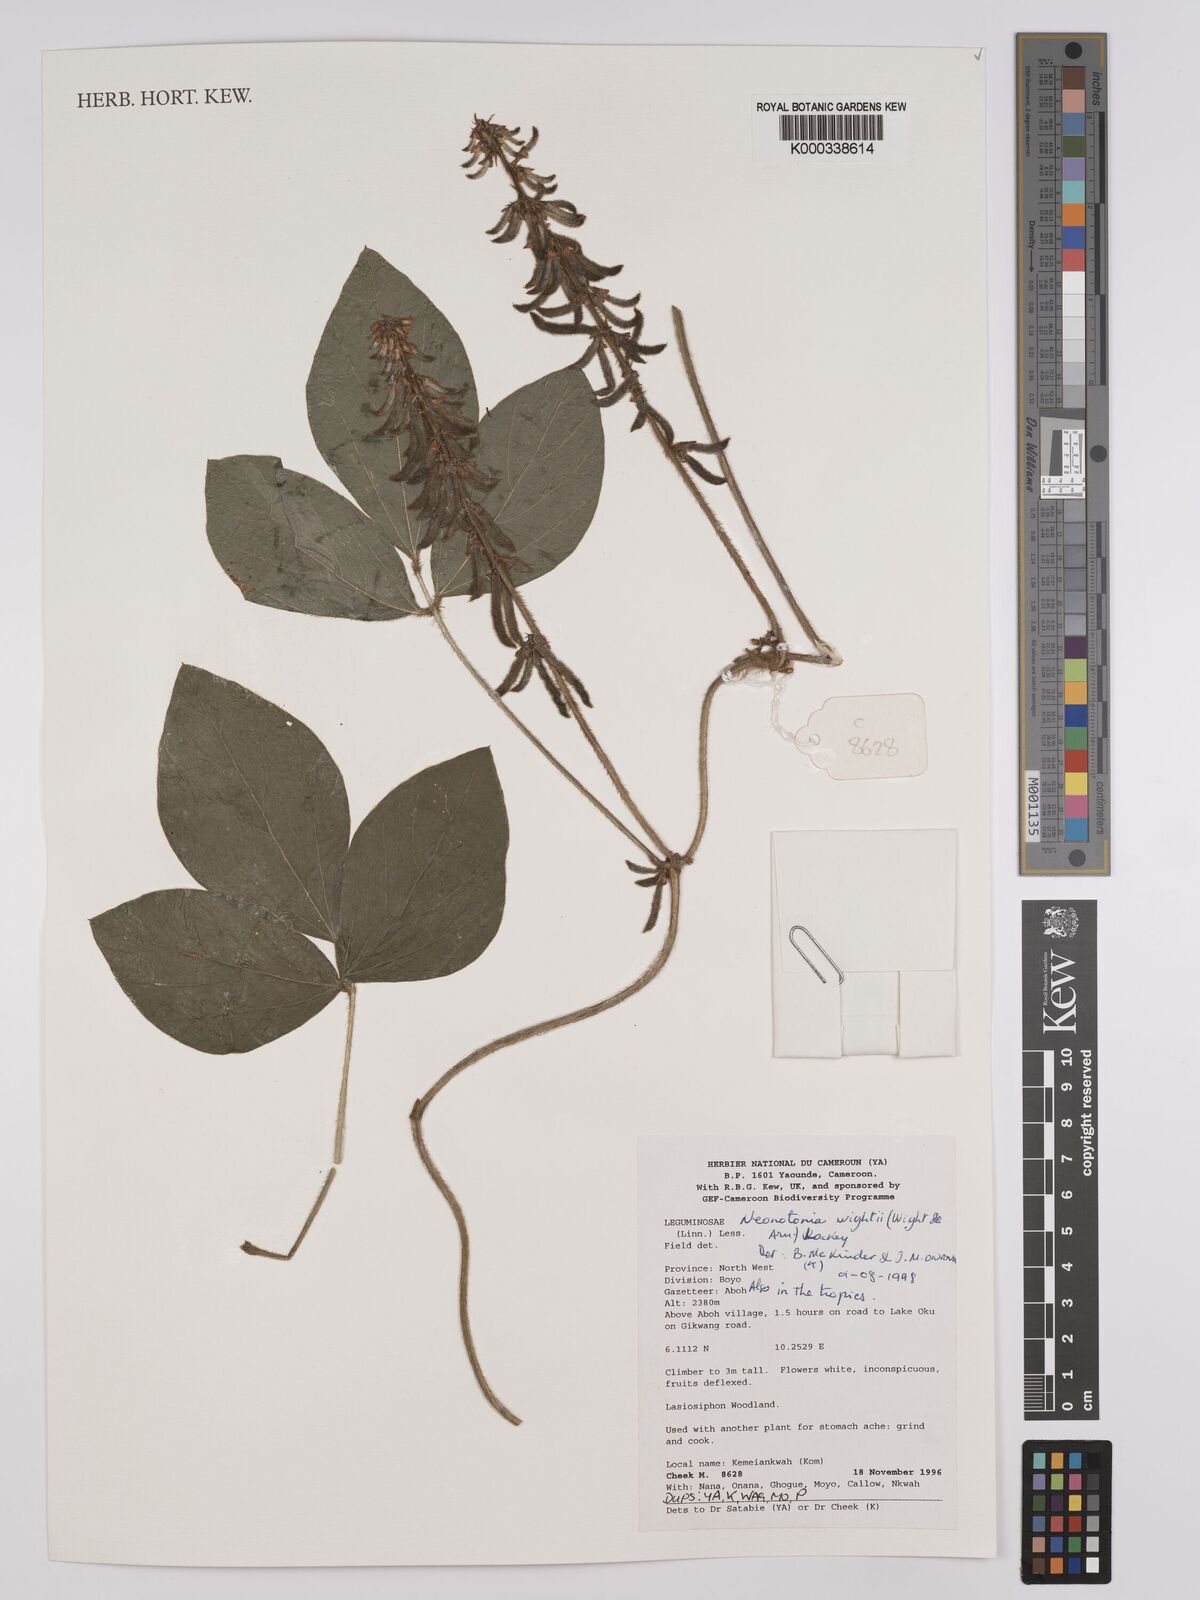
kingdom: Plantae
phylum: Tracheophyta
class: Magnoliopsida
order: Fabales
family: Fabaceae
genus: Neonotonia
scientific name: Neonotonia wightii
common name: Perennial soybean
